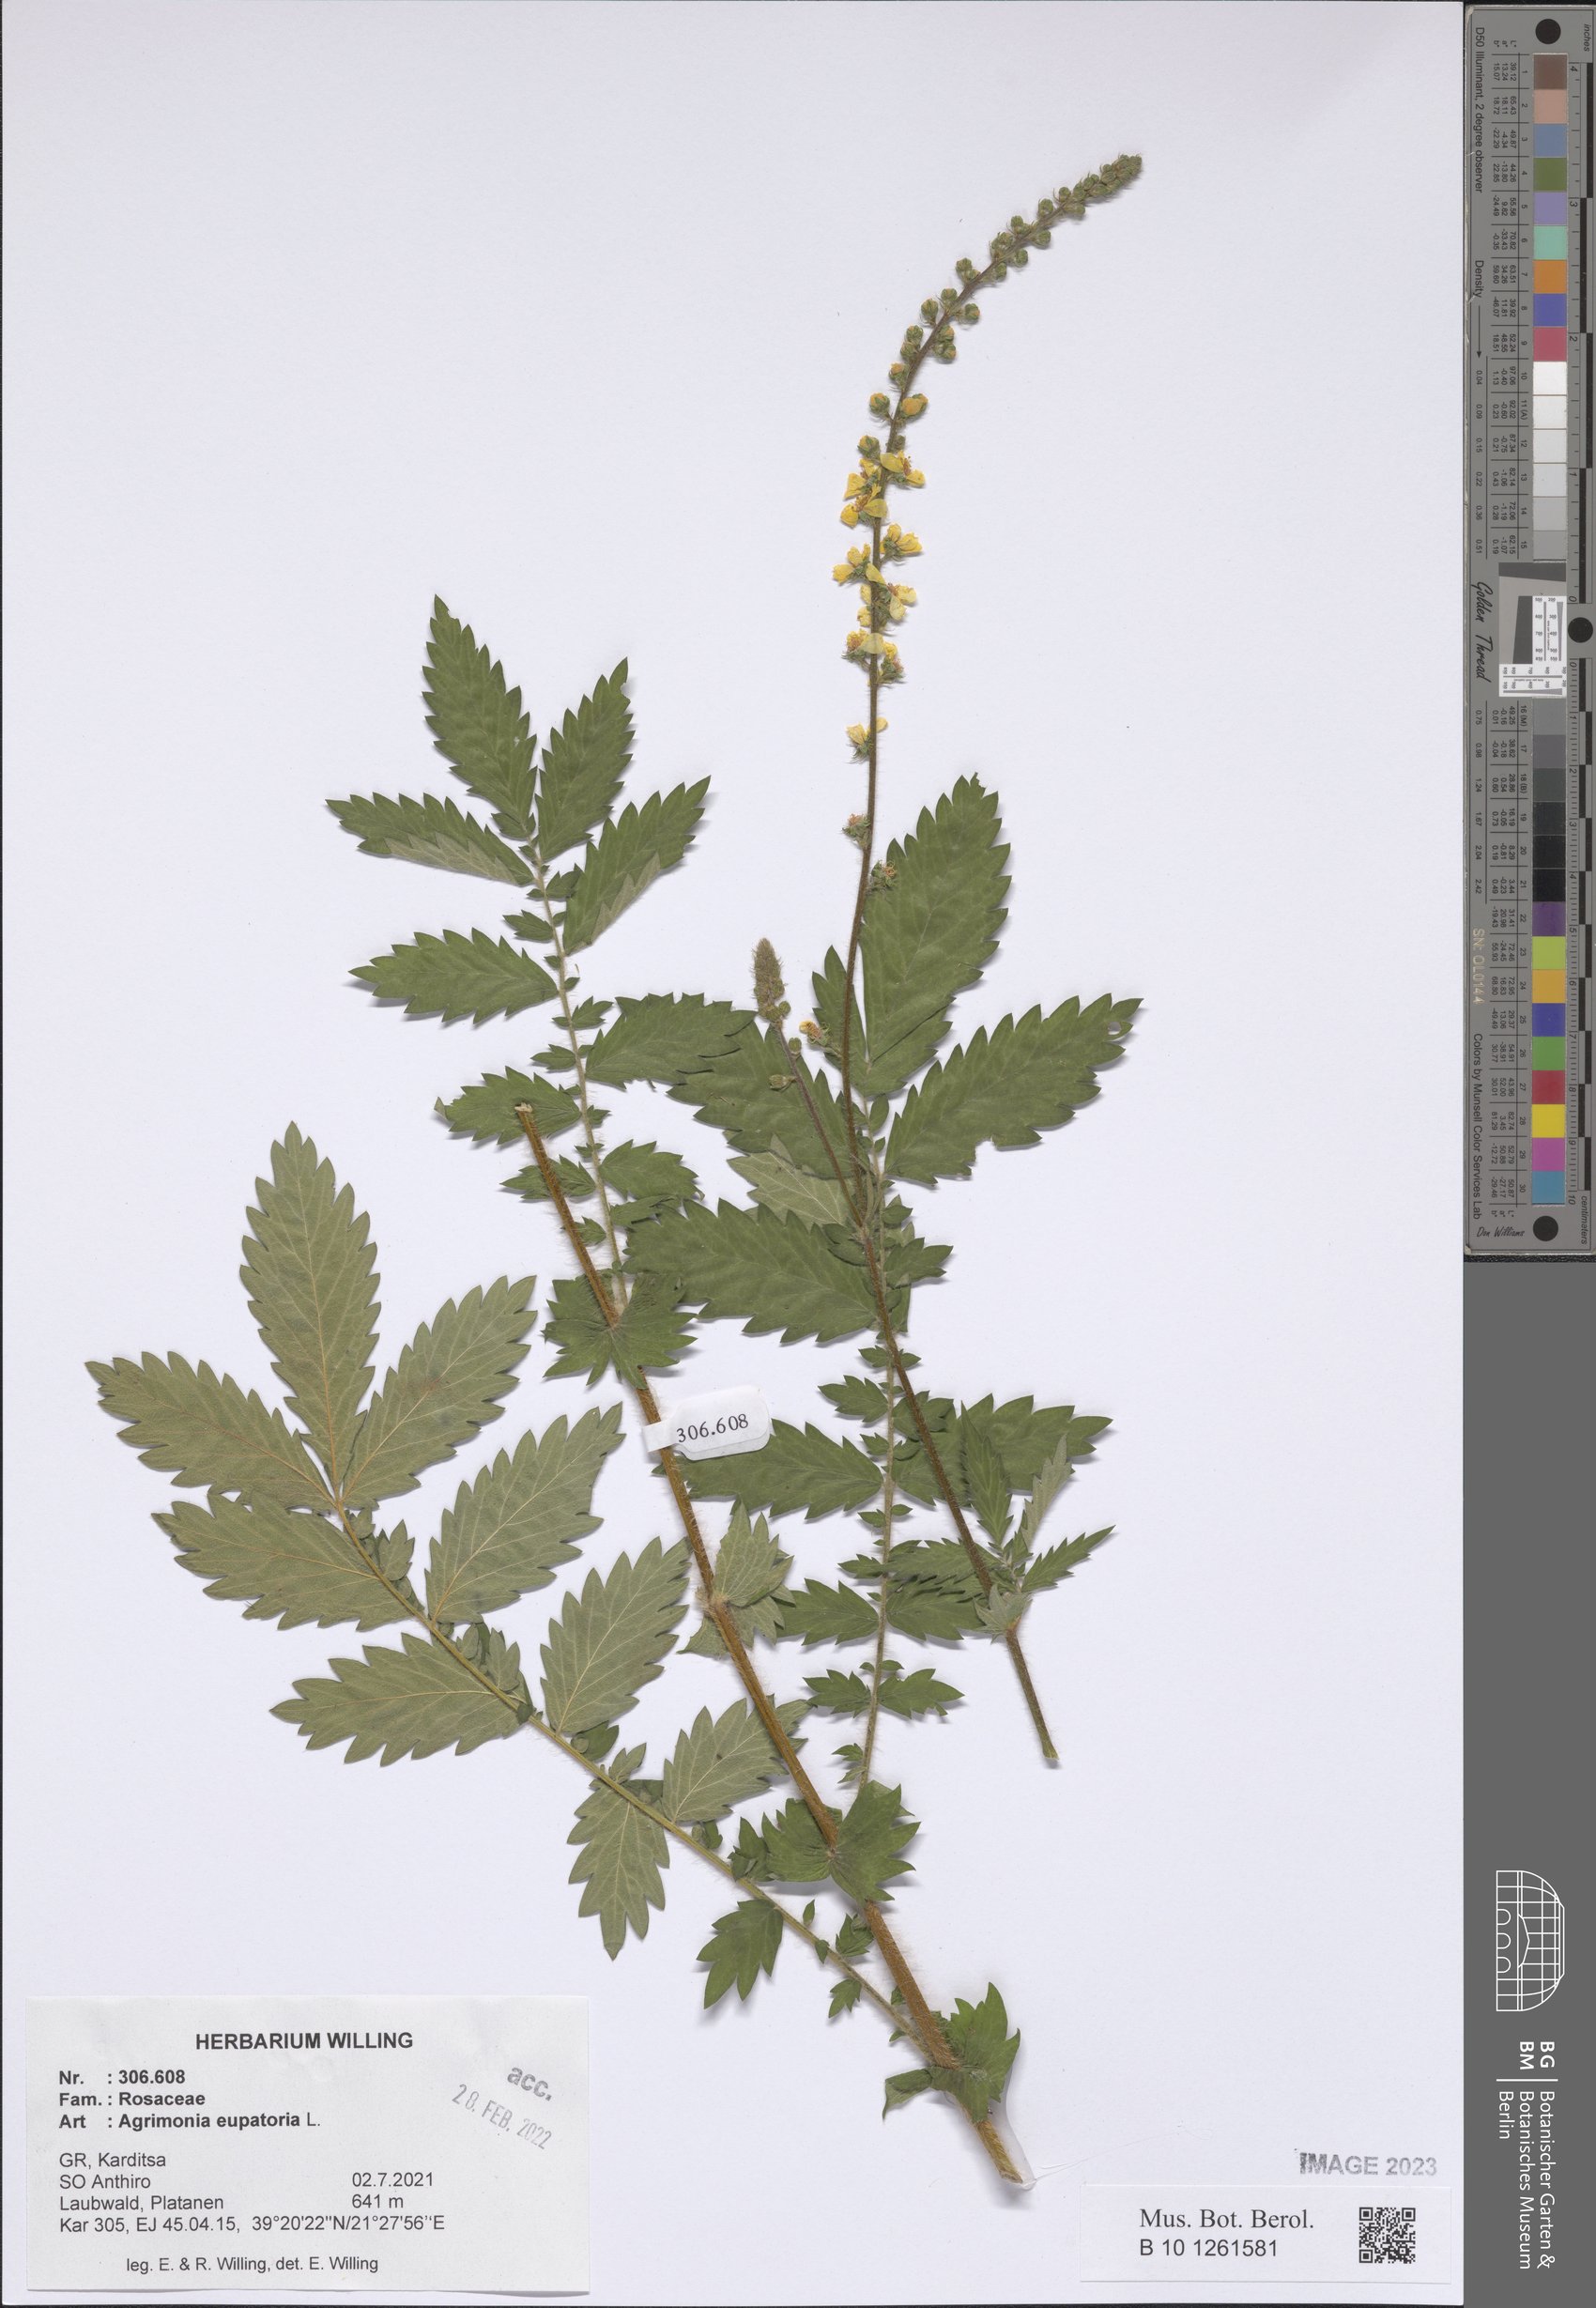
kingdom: Plantae
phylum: Tracheophyta
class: Magnoliopsida
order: Rosales
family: Rosaceae
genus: Agrimonia
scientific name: Agrimonia eupatoria
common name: Agrimony
